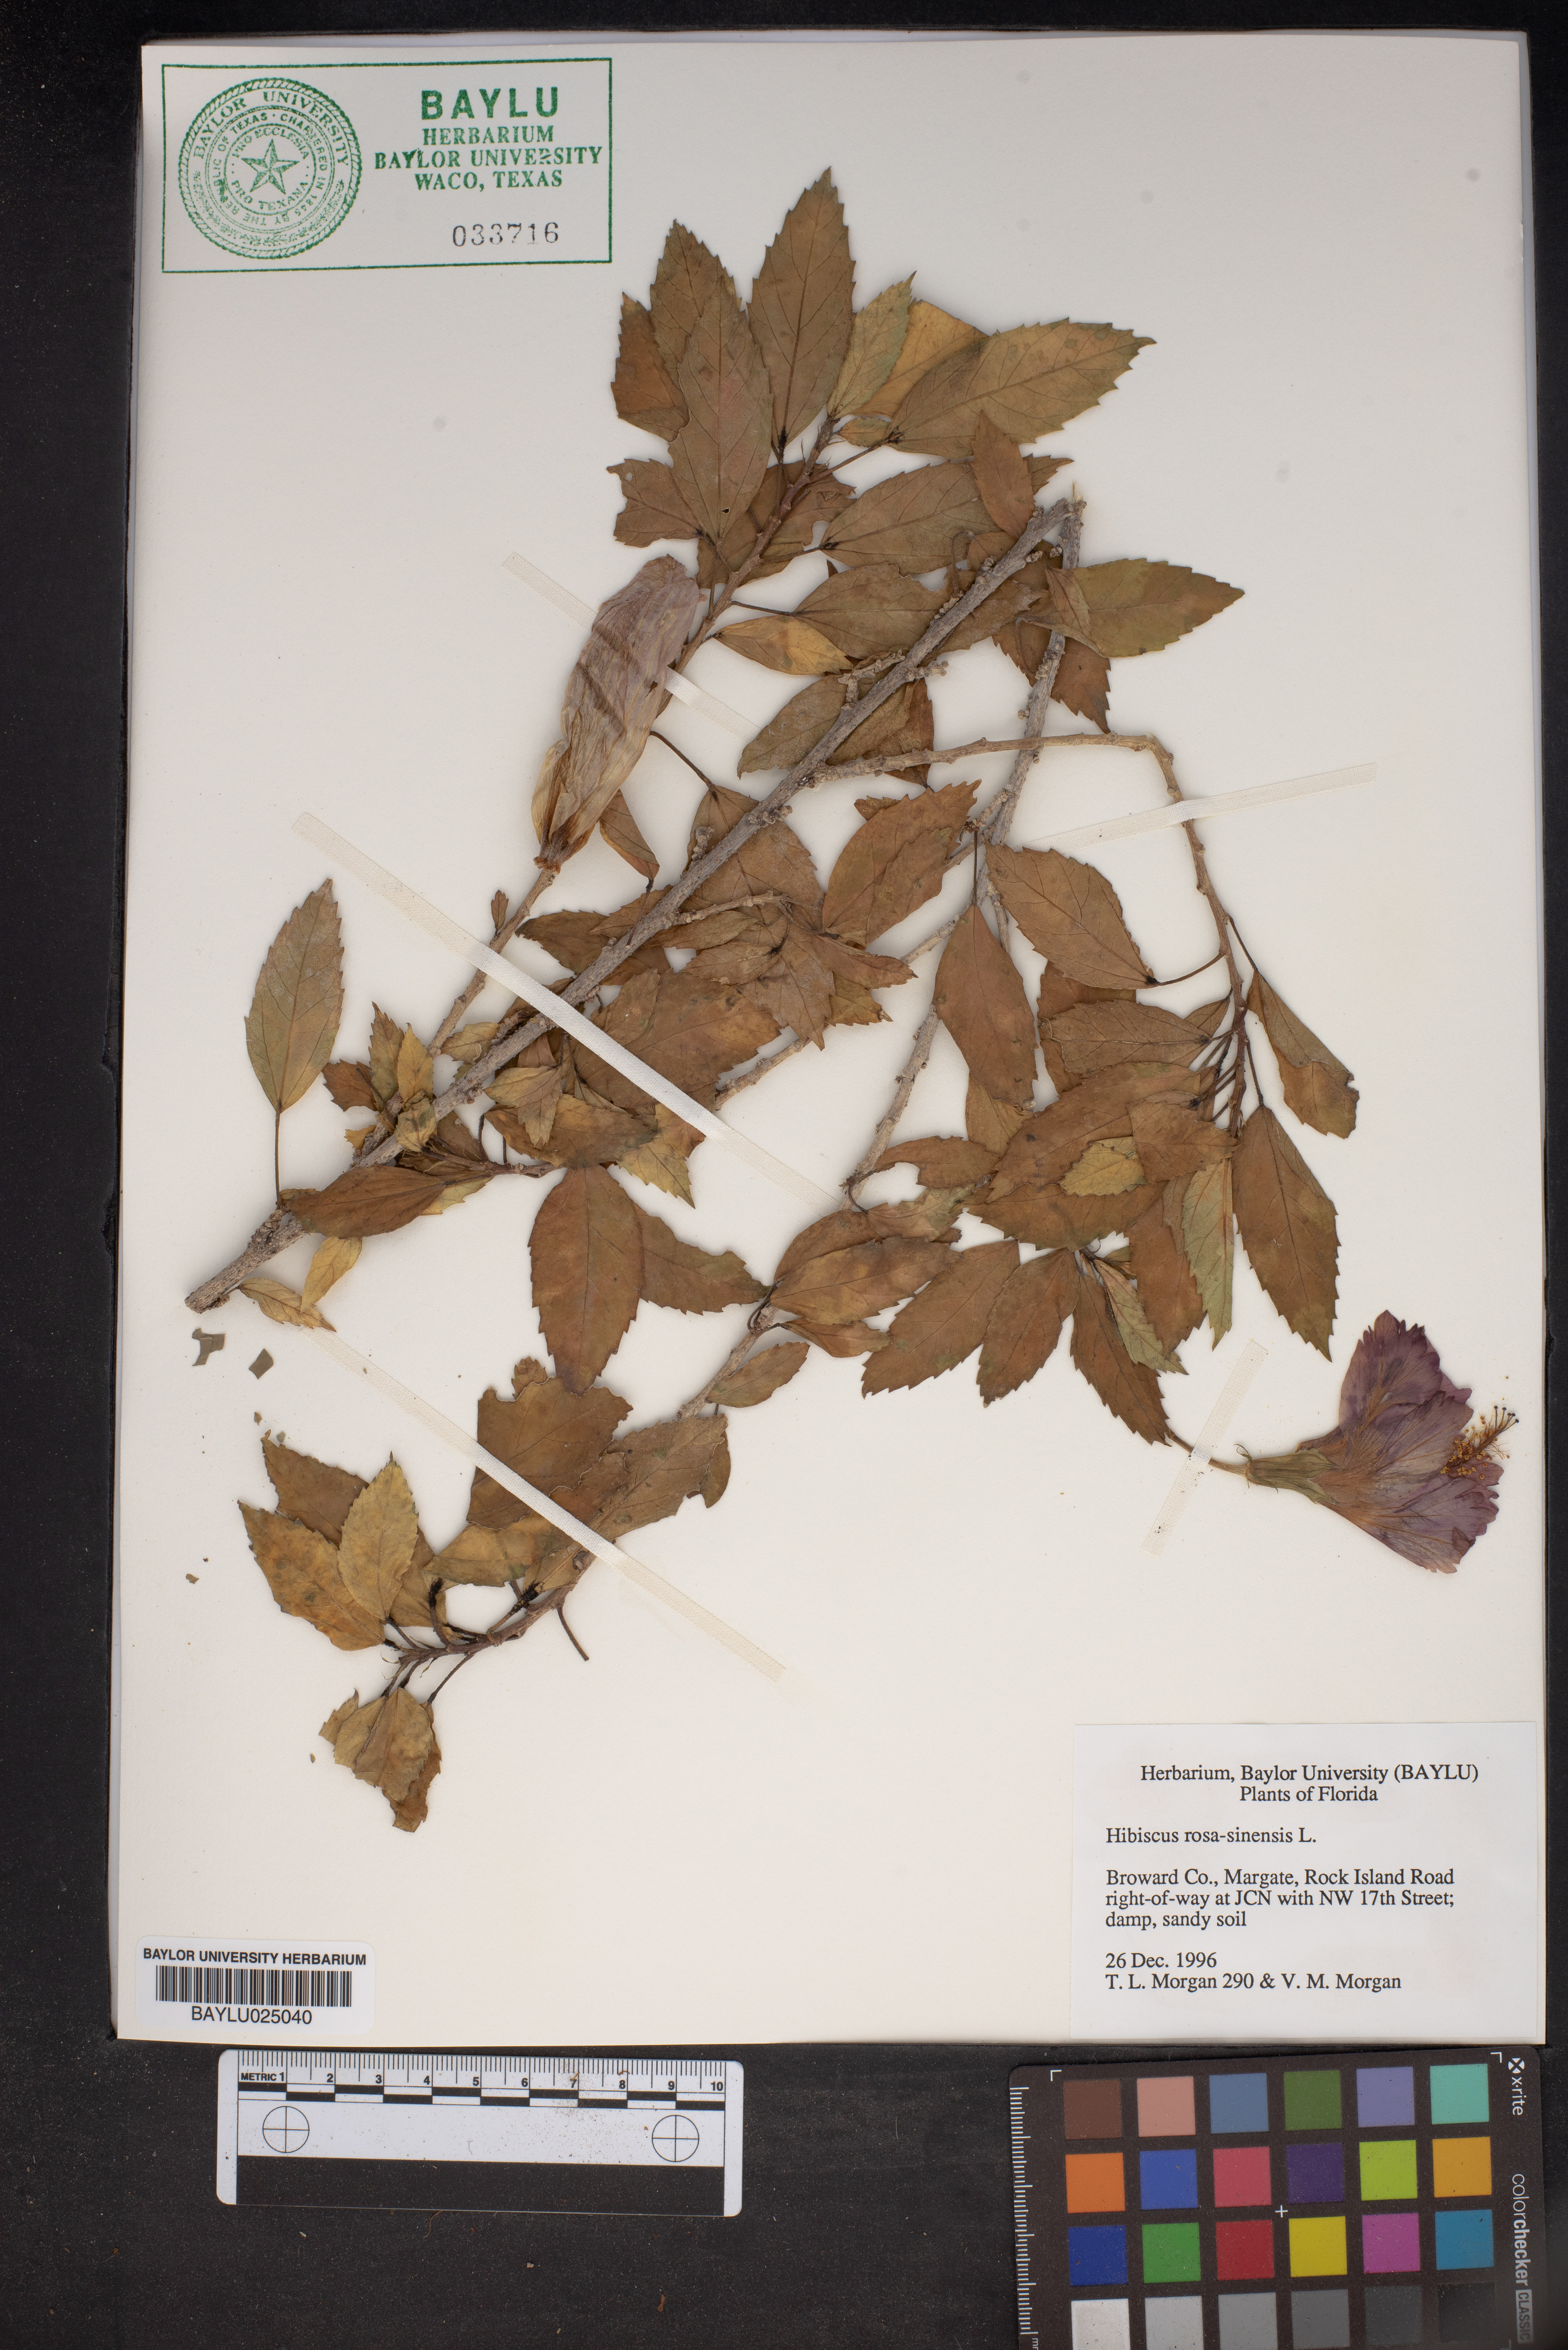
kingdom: Plantae
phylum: Tracheophyta
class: Magnoliopsida
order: Malvales
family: Malvaceae
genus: Hibiscus
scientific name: Hibiscus rosa-sinensis
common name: Hibiscus
